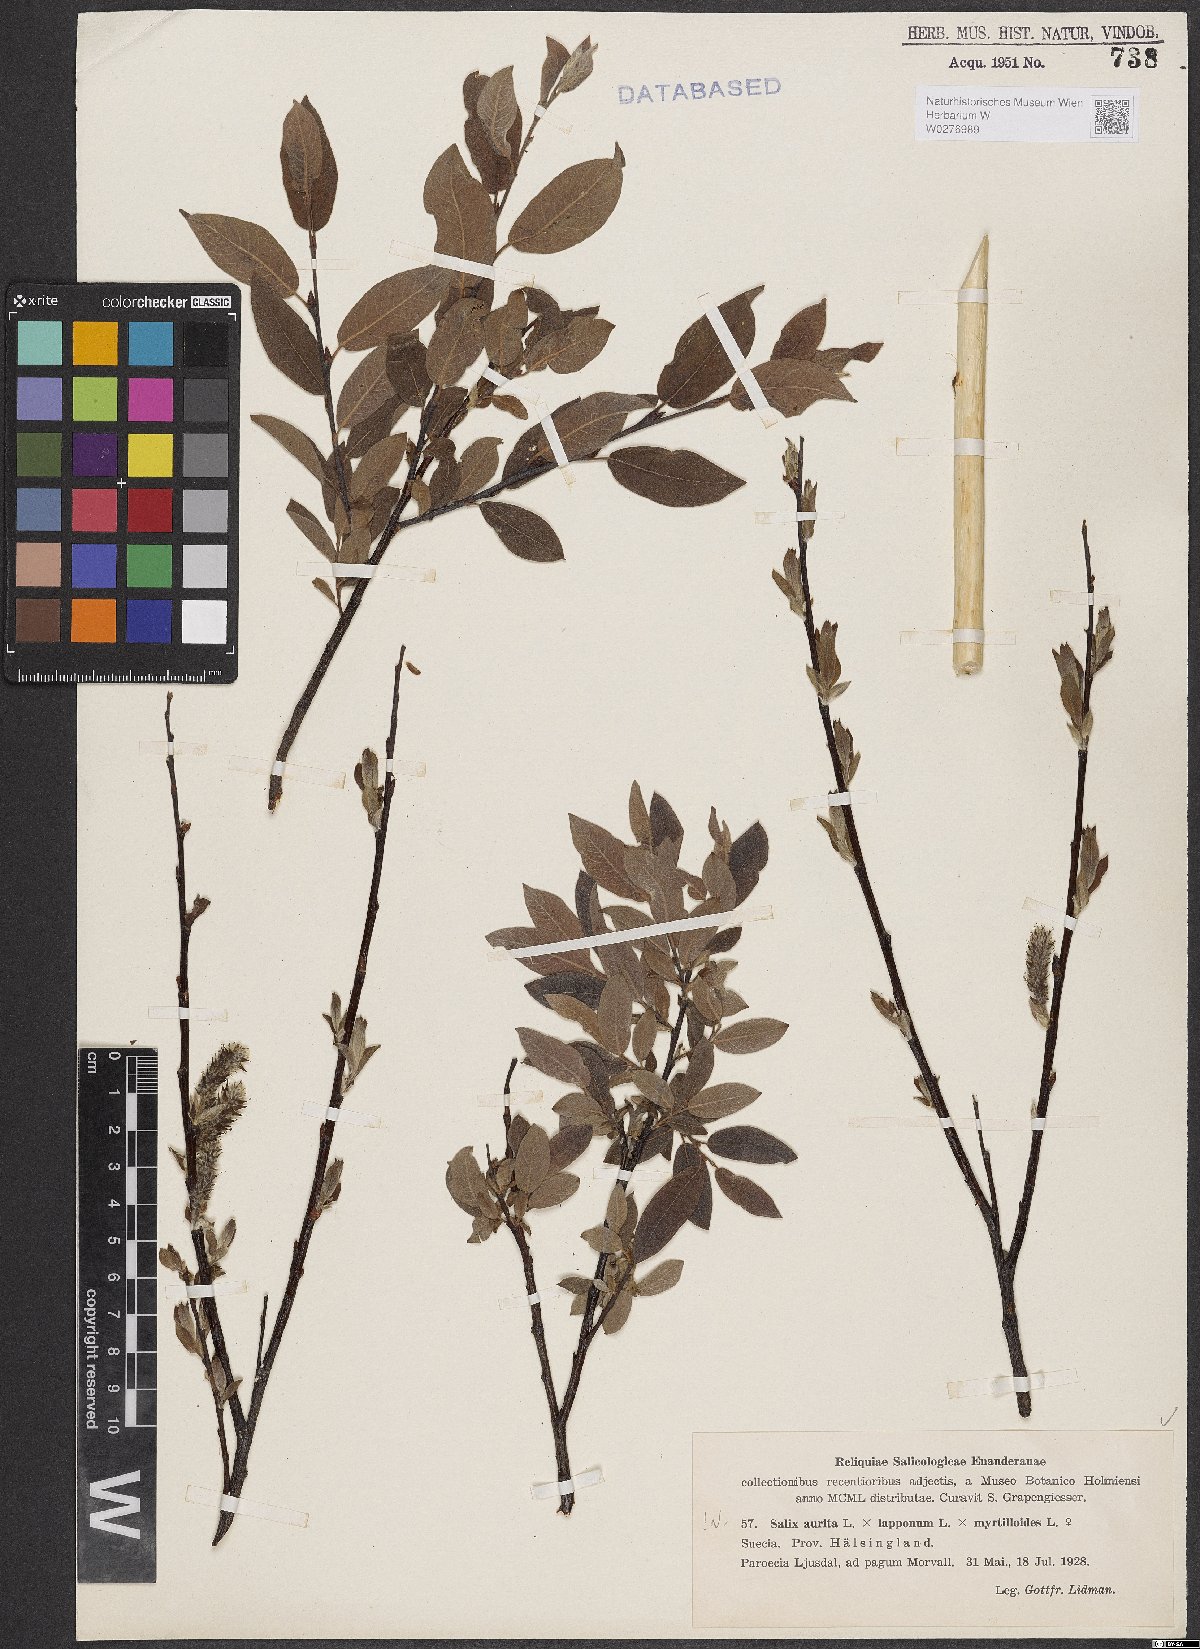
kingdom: Plantae
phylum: Tracheophyta
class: Magnoliopsida
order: Malpighiales
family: Salicaceae
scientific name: Salicaceae
